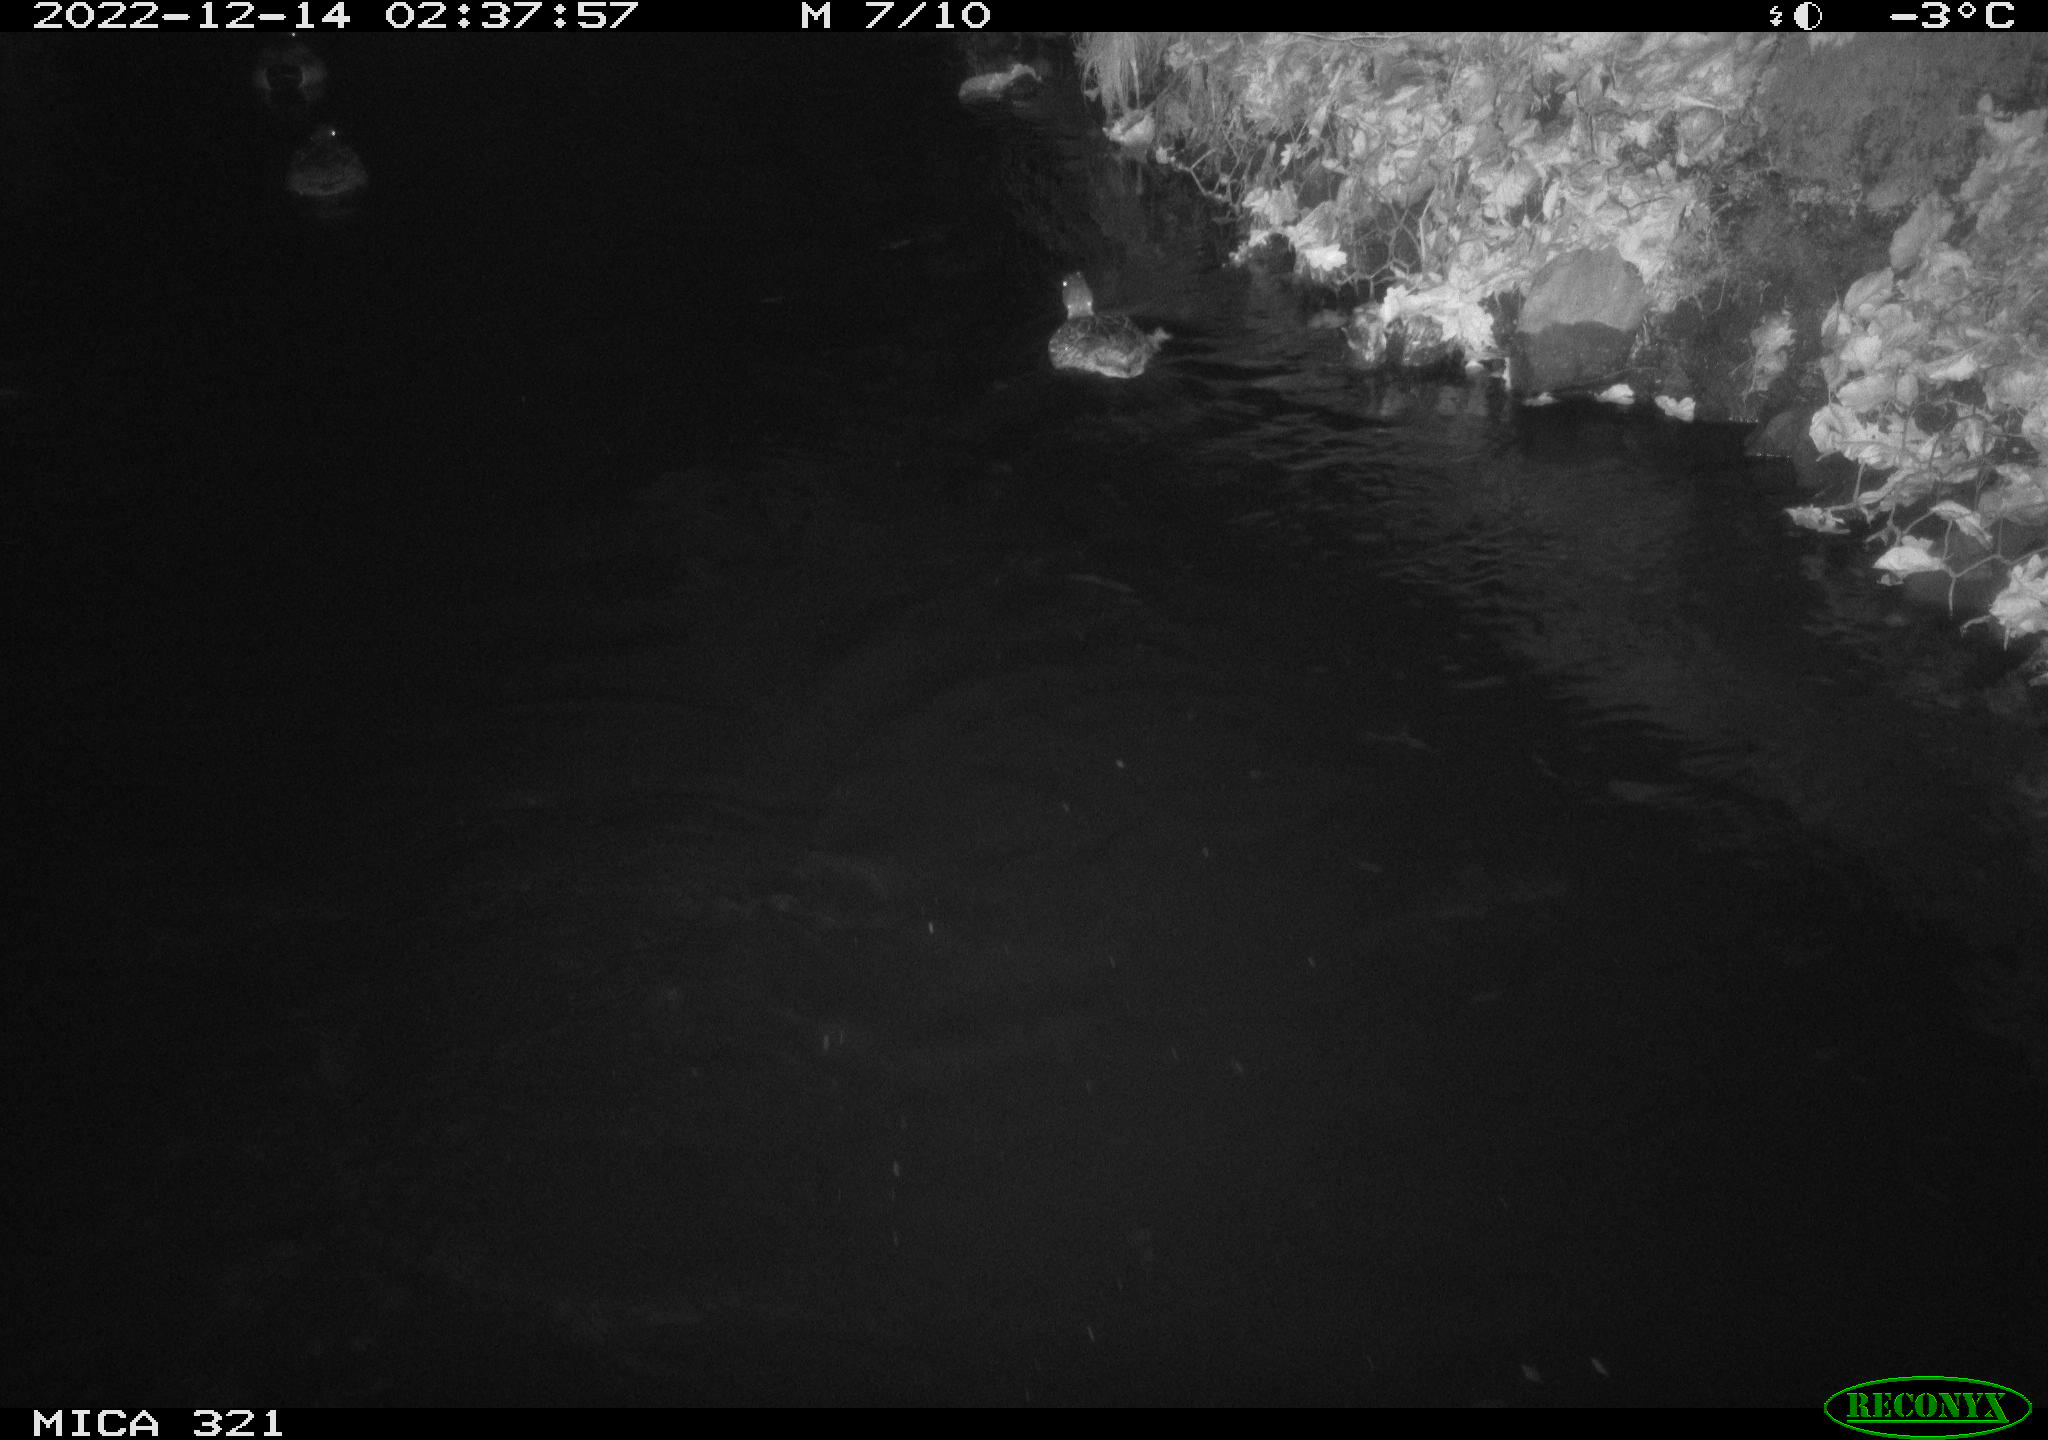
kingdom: Animalia
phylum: Chordata
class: Aves
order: Anseriformes
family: Anatidae
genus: Anas
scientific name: Anas
